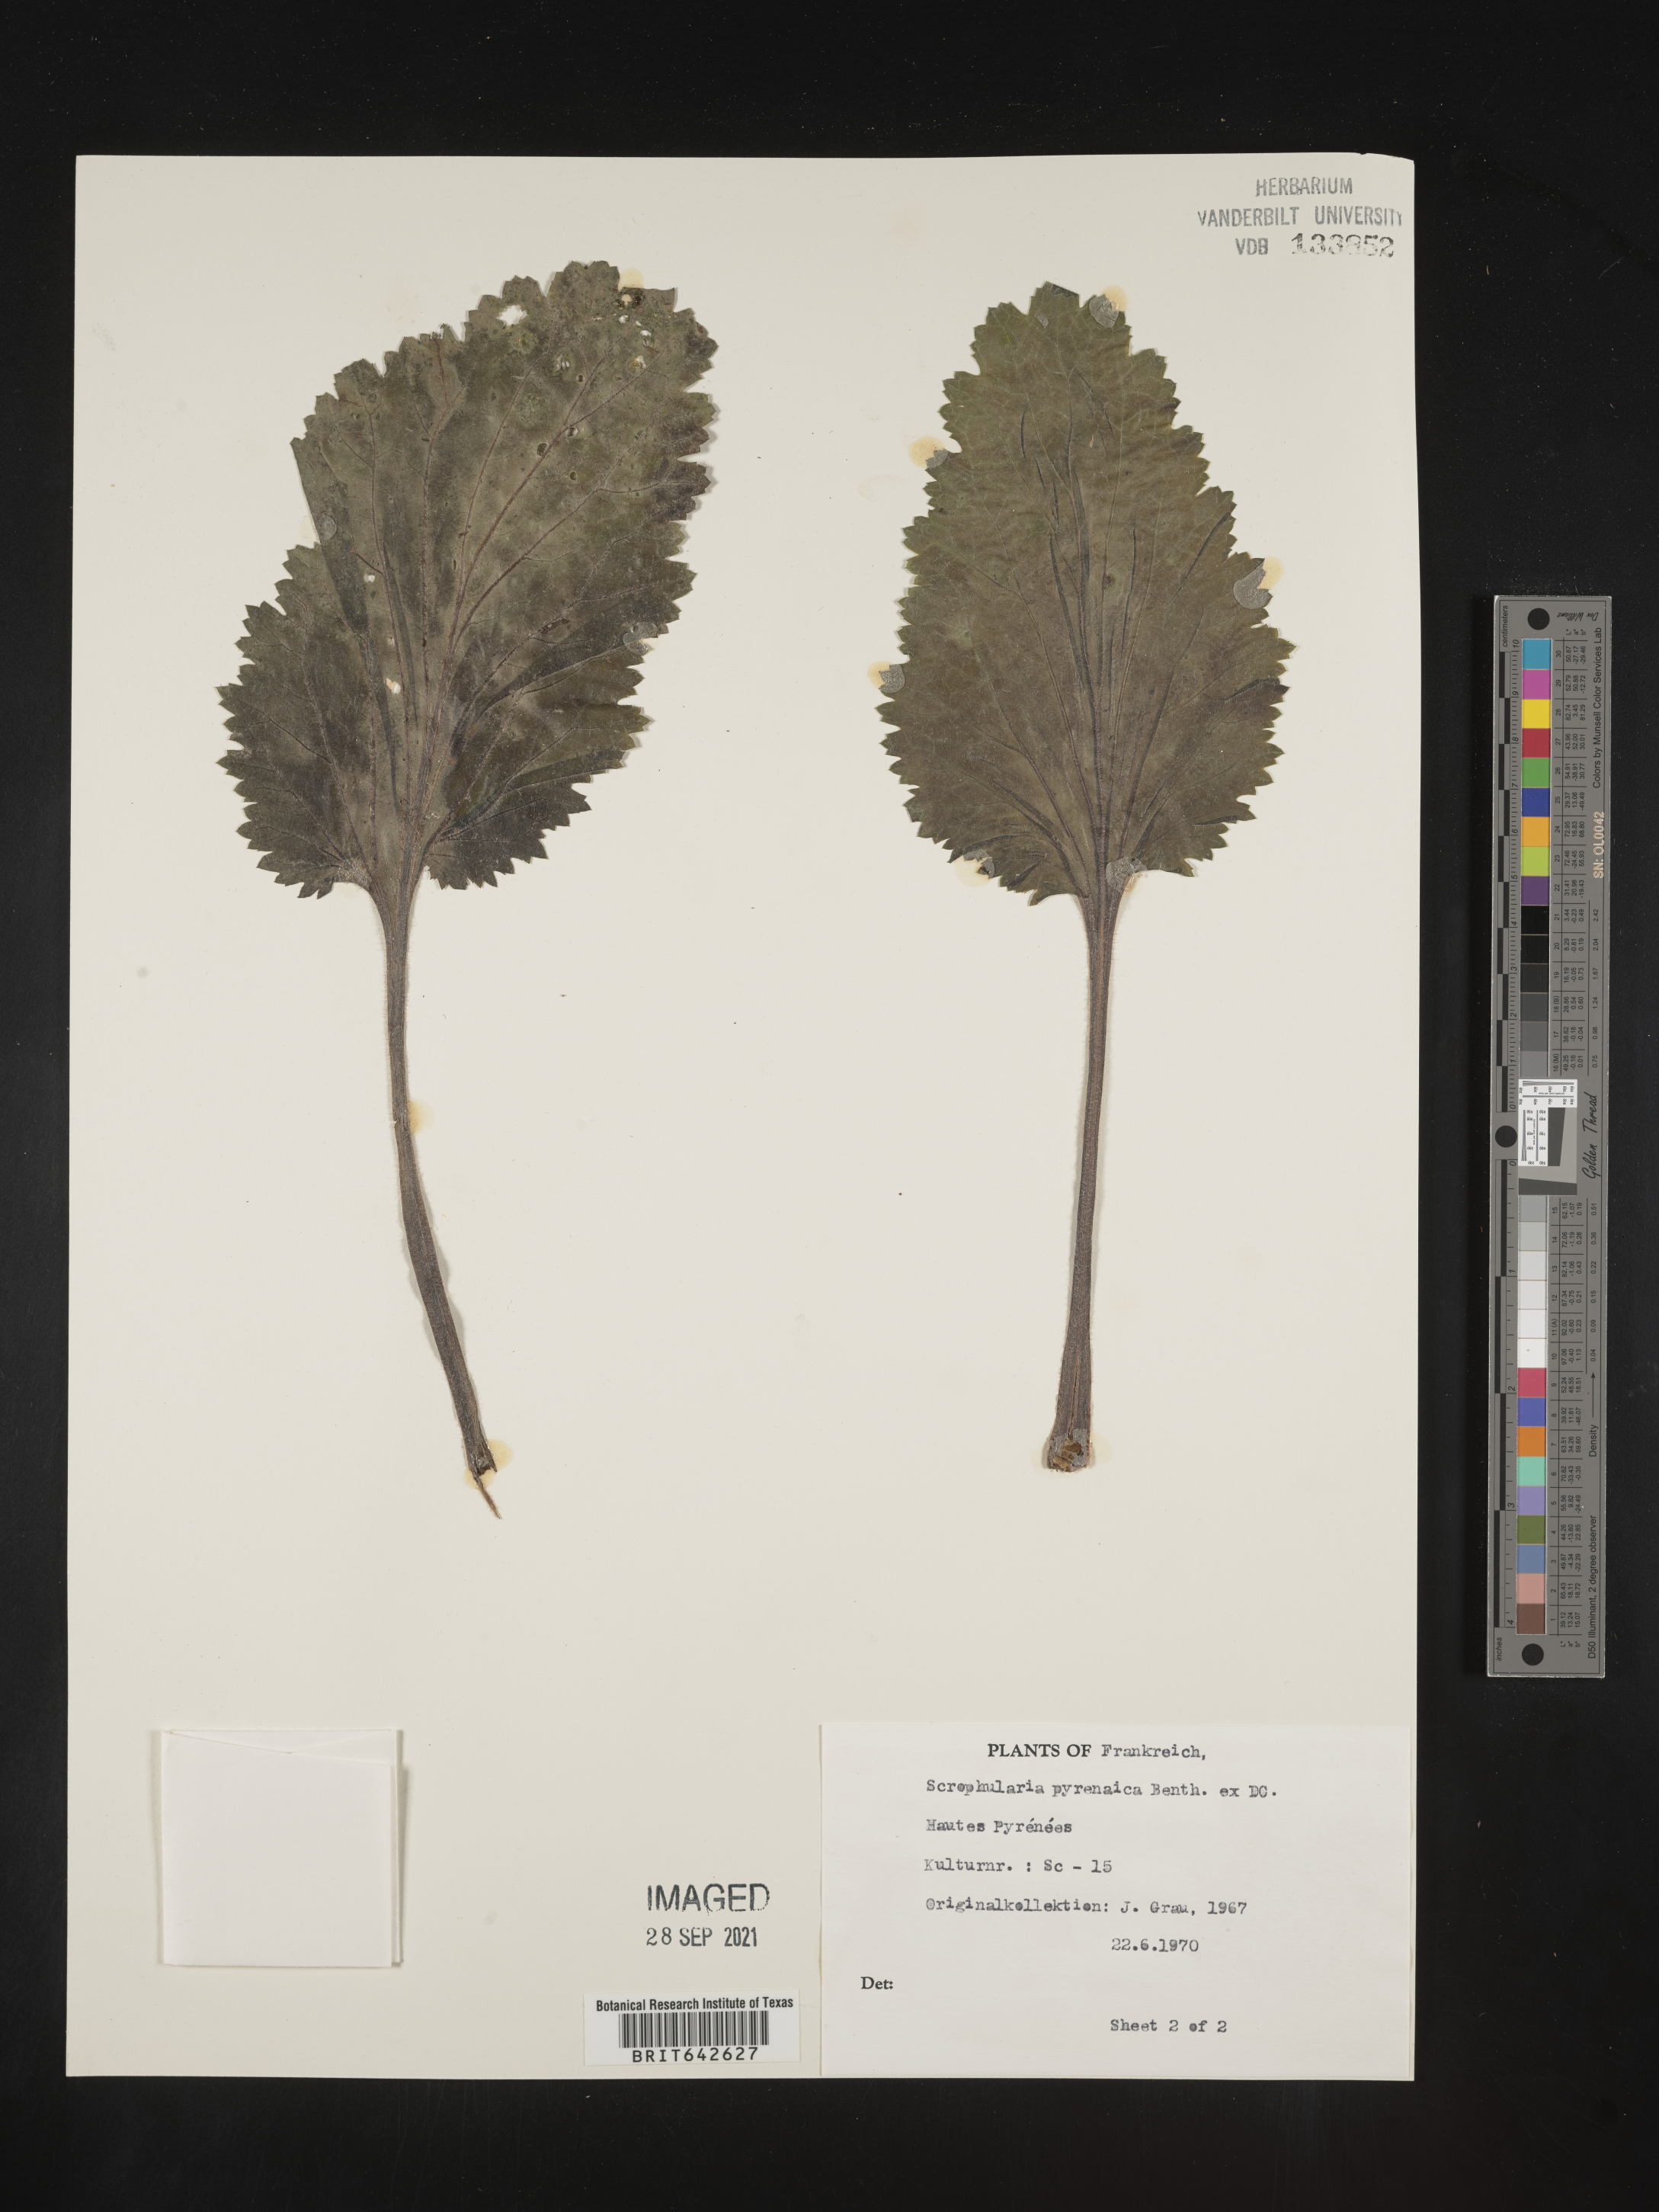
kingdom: Plantae
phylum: Tracheophyta
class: Magnoliopsida
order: Lamiales
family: Scrophulariaceae
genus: Scrophularia
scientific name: Scrophularia
